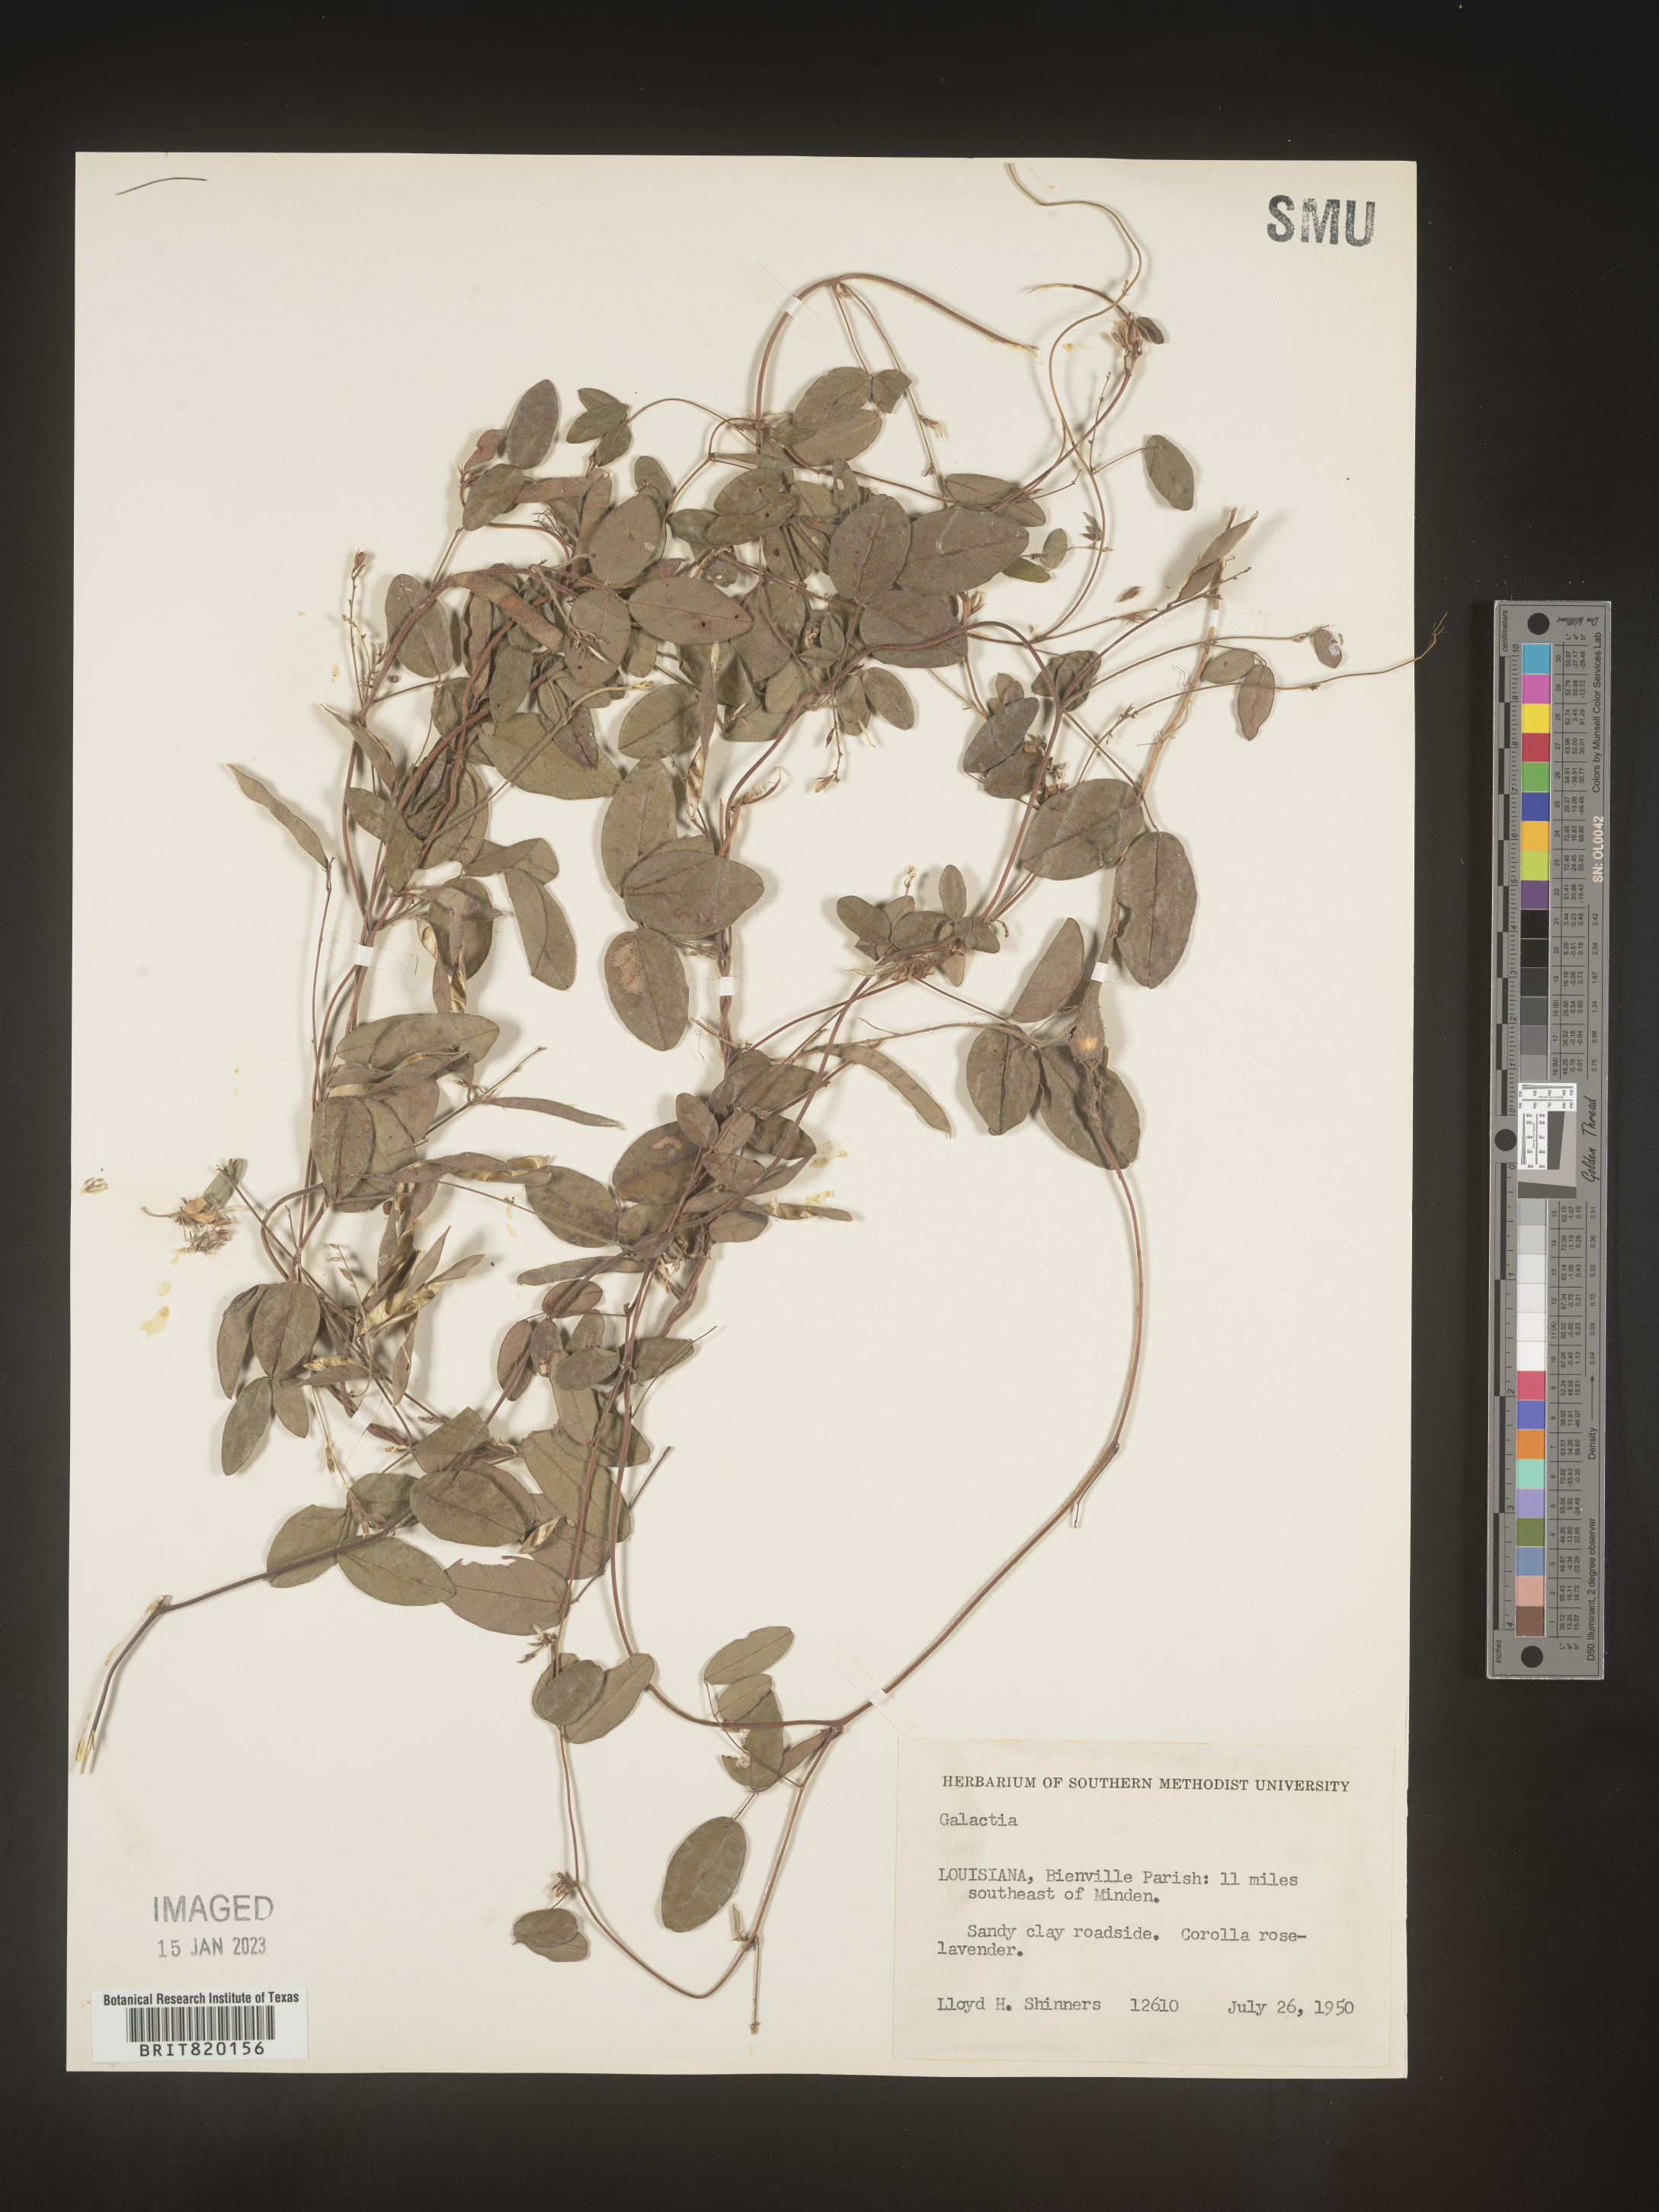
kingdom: Plantae
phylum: Tracheophyta
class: Magnoliopsida
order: Fabales
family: Fabaceae
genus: Galactia
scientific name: Galactia volubilis
